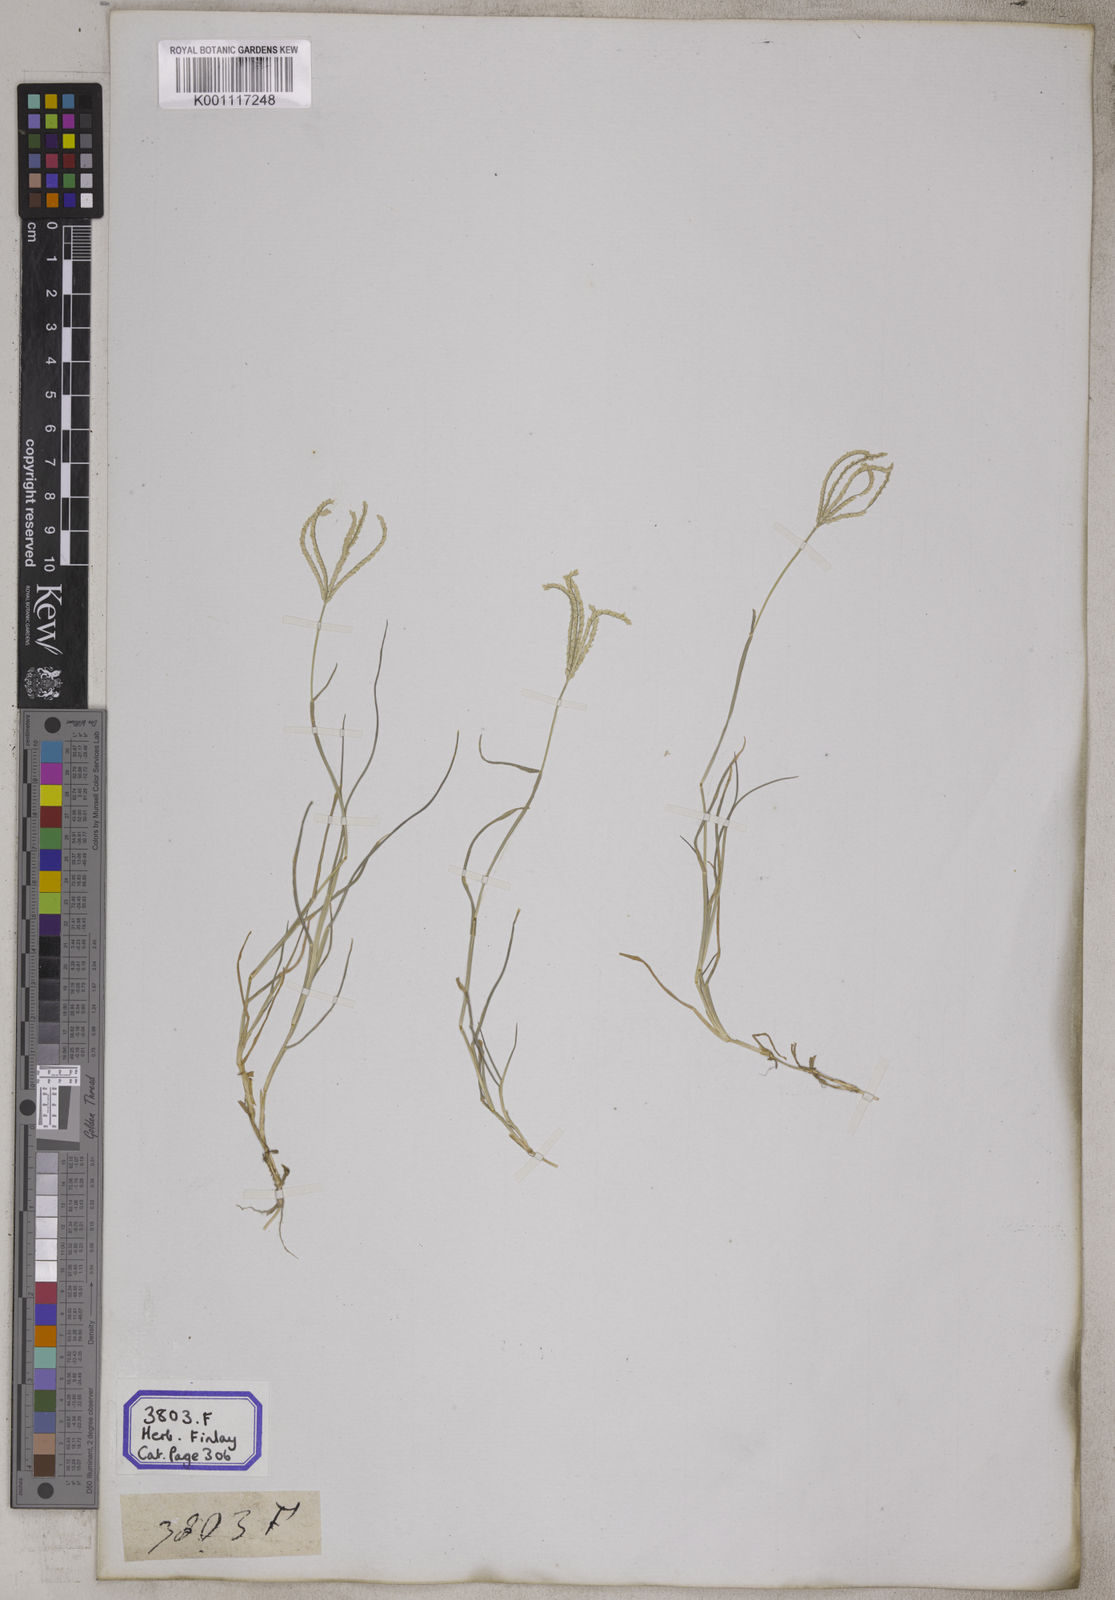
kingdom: Plantae
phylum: Tracheophyta
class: Liliopsida
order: Poales
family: Poaceae
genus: Cynodon
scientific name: Cynodon dactylon
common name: Bermuda grass
